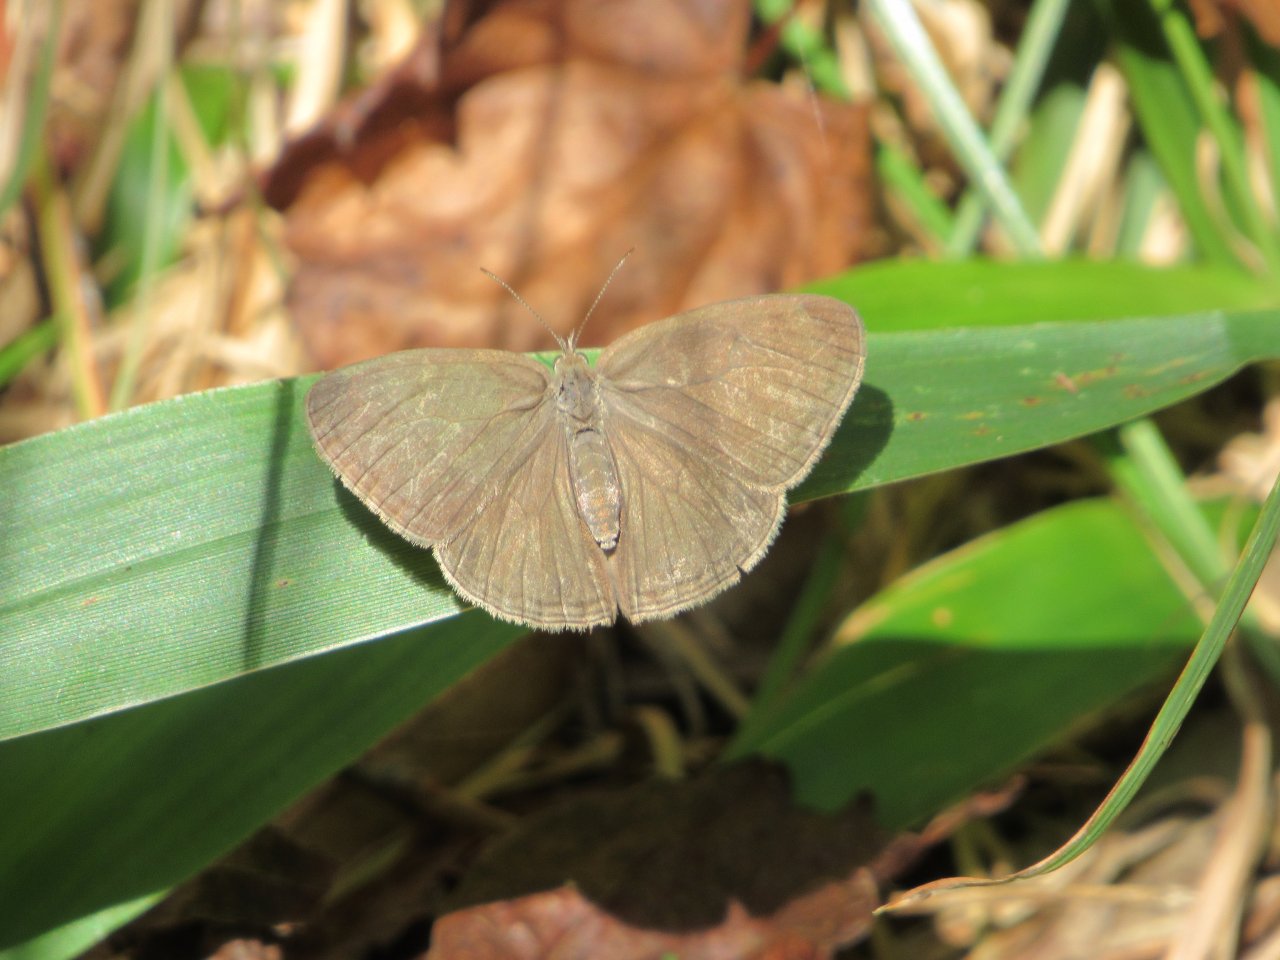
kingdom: Animalia
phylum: Arthropoda
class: Insecta
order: Lepidoptera
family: Nymphalidae
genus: Hermeuptychia
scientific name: Hermeuptychia hermes
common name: Carolina Satyr
